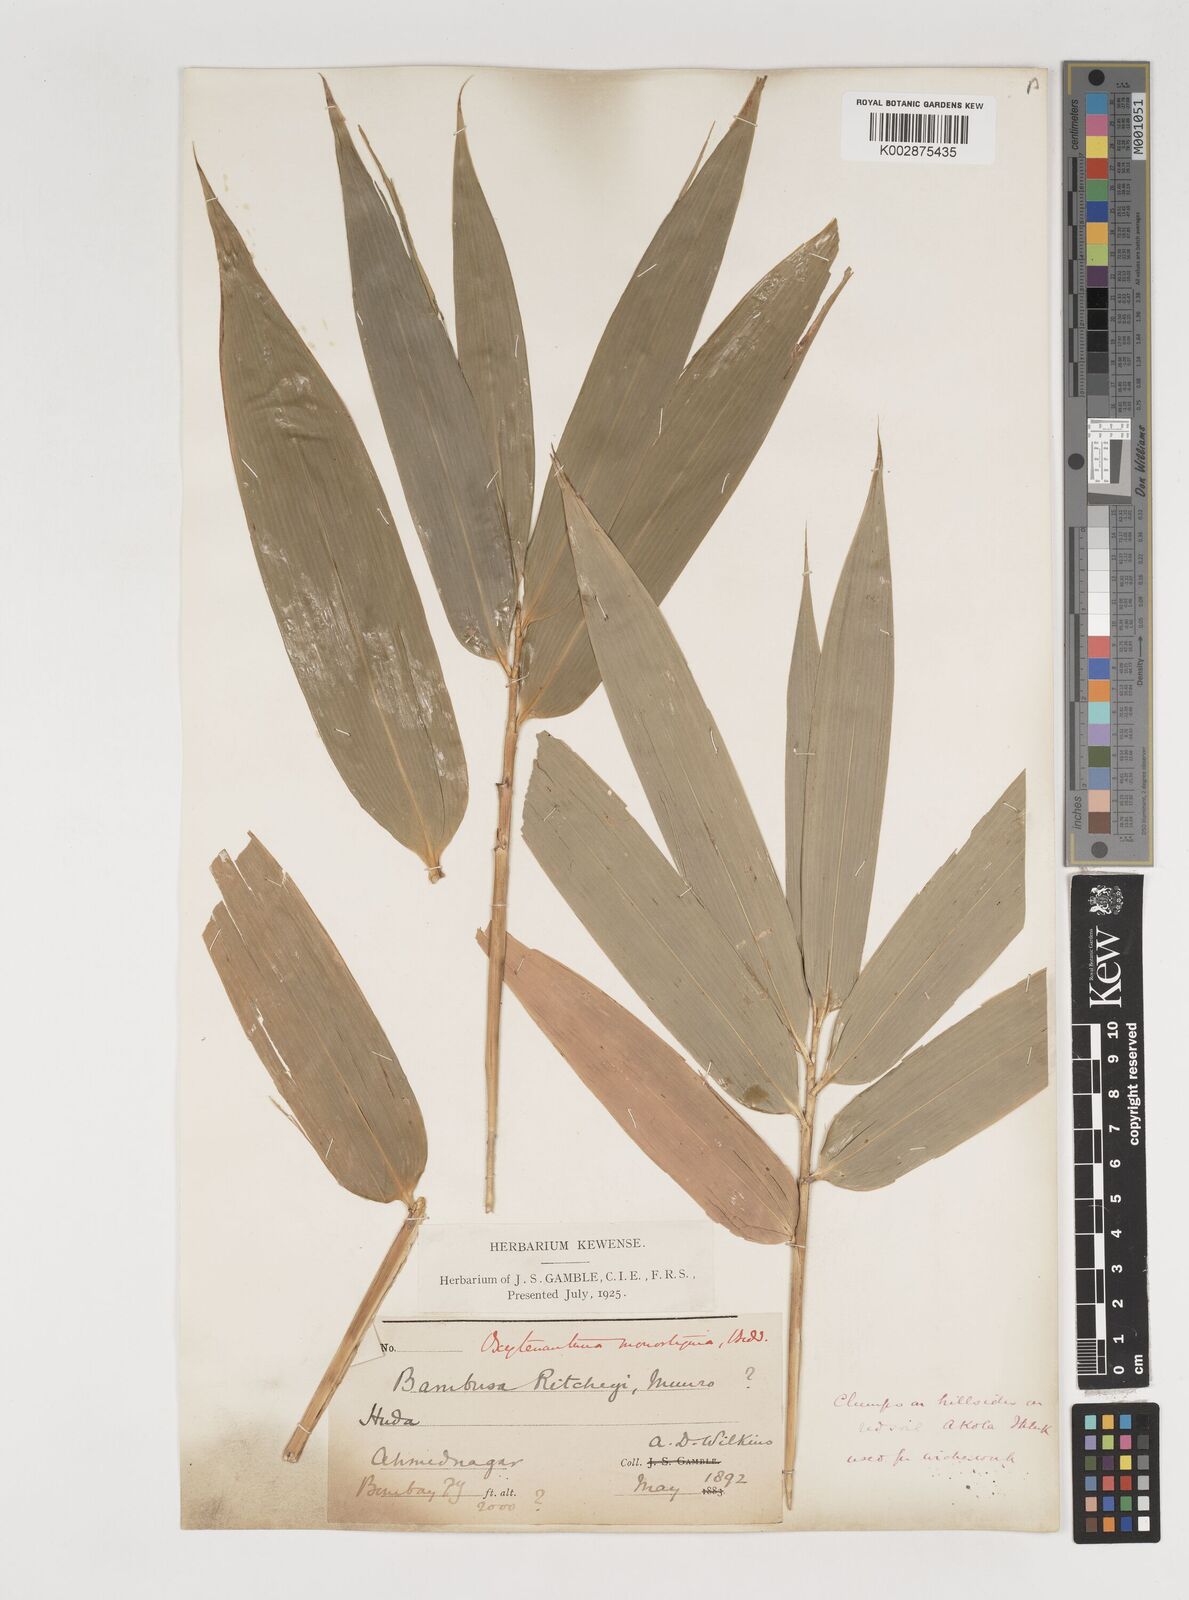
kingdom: Plantae
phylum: Tracheophyta
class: Liliopsida
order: Poales
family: Poaceae
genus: Dendrocalamus
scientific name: Dendrocalamus
